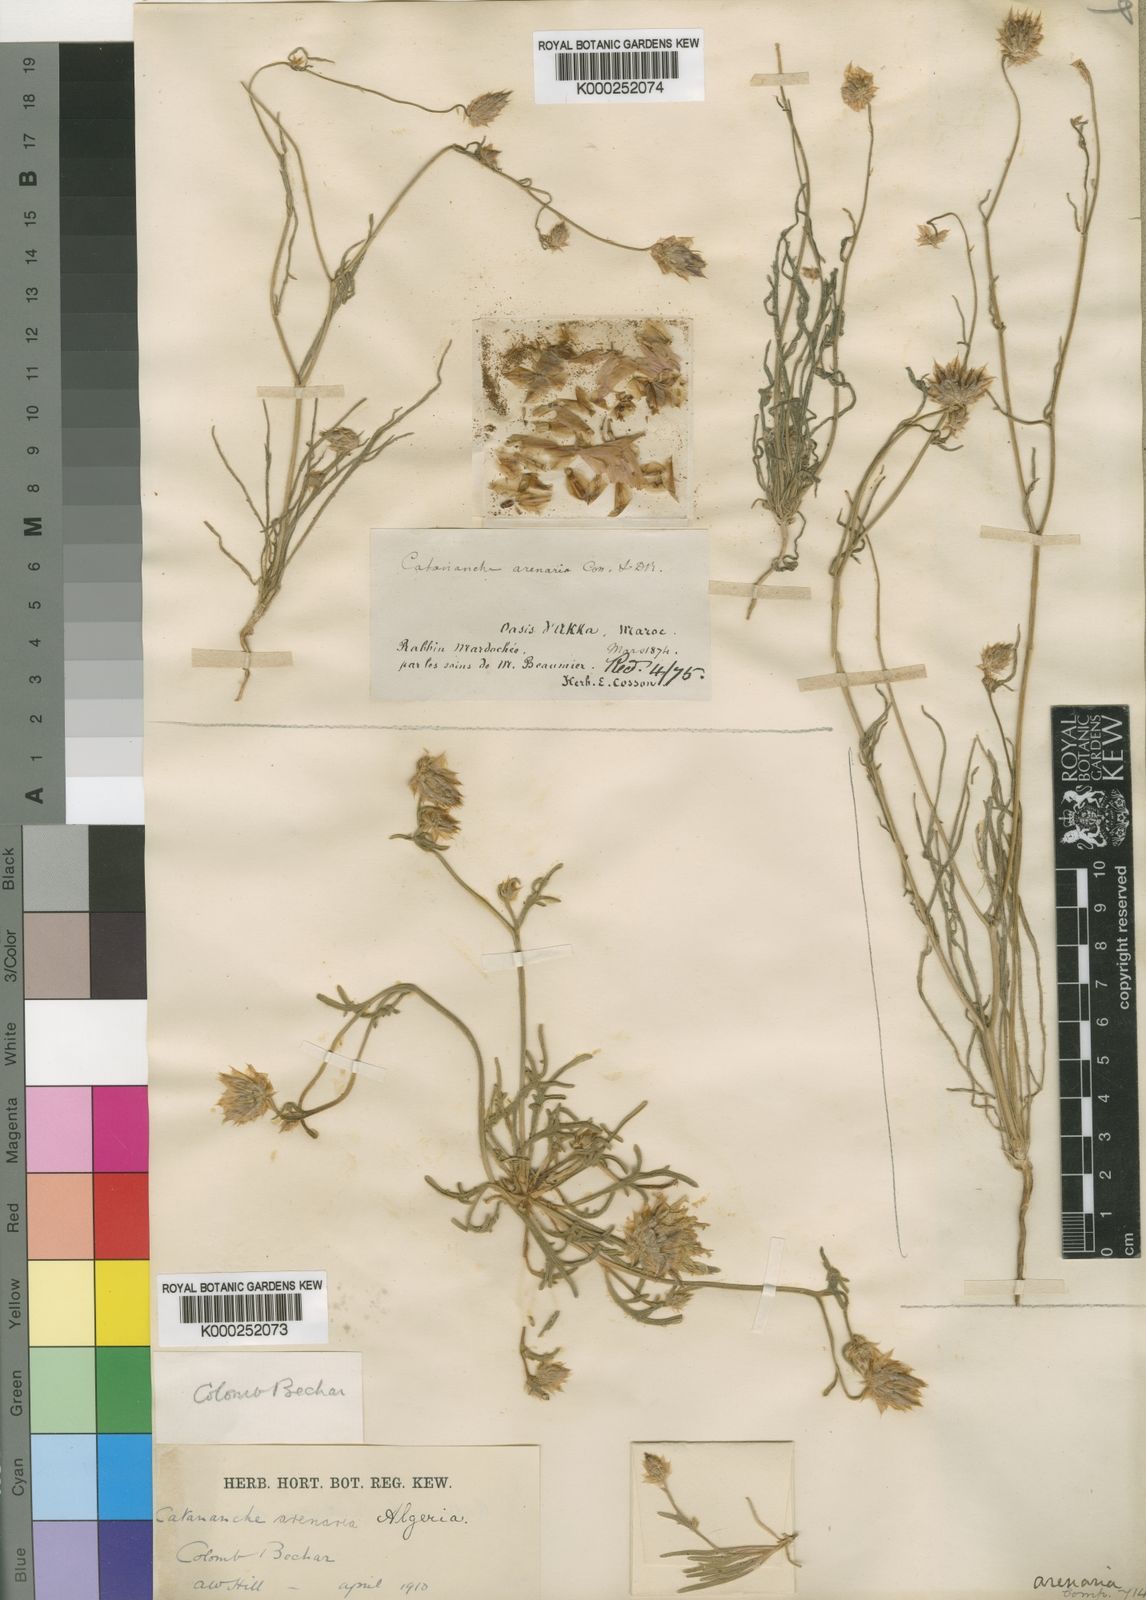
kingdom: Plantae
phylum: Tracheophyta
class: Magnoliopsida
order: Asterales
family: Asteraceae
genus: Catananche
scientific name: Catananche arenaria
